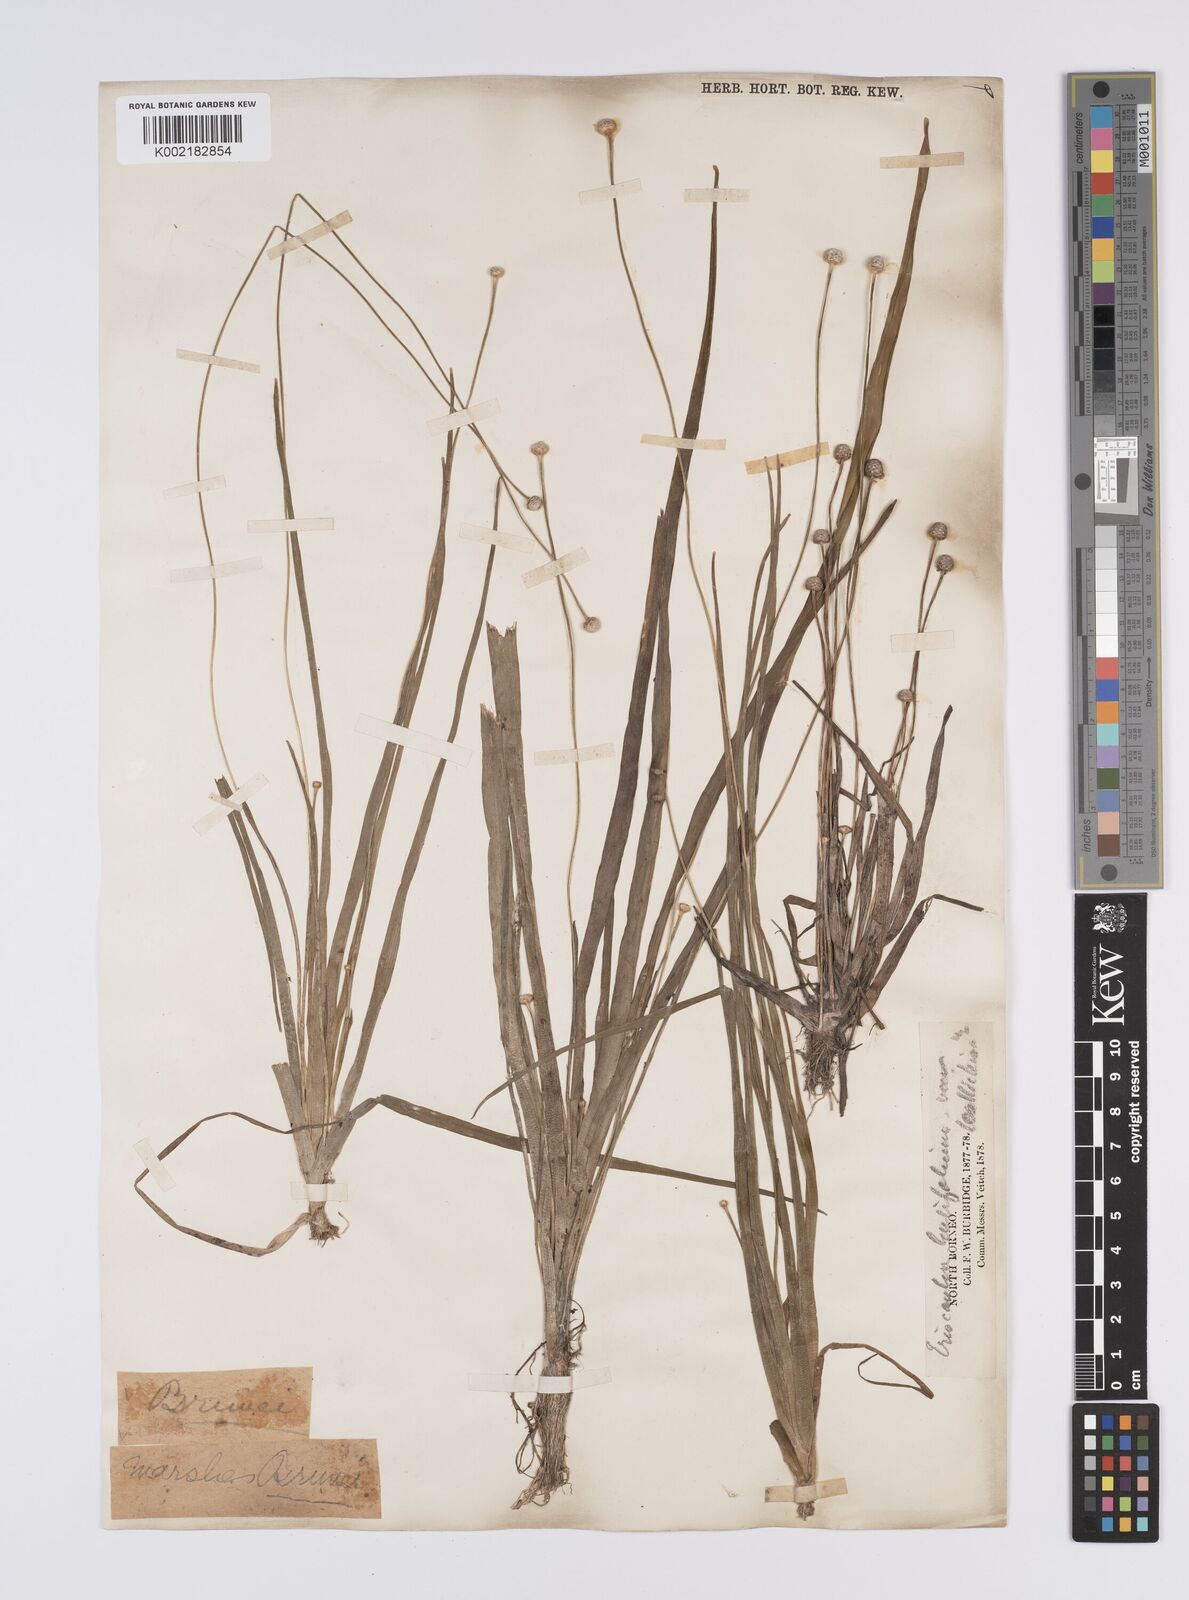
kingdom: Plantae
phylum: Tracheophyta
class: Liliopsida
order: Poales
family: Eriocaulaceae
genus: Eriocaulon
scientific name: Eriocaulon willdenovianum
